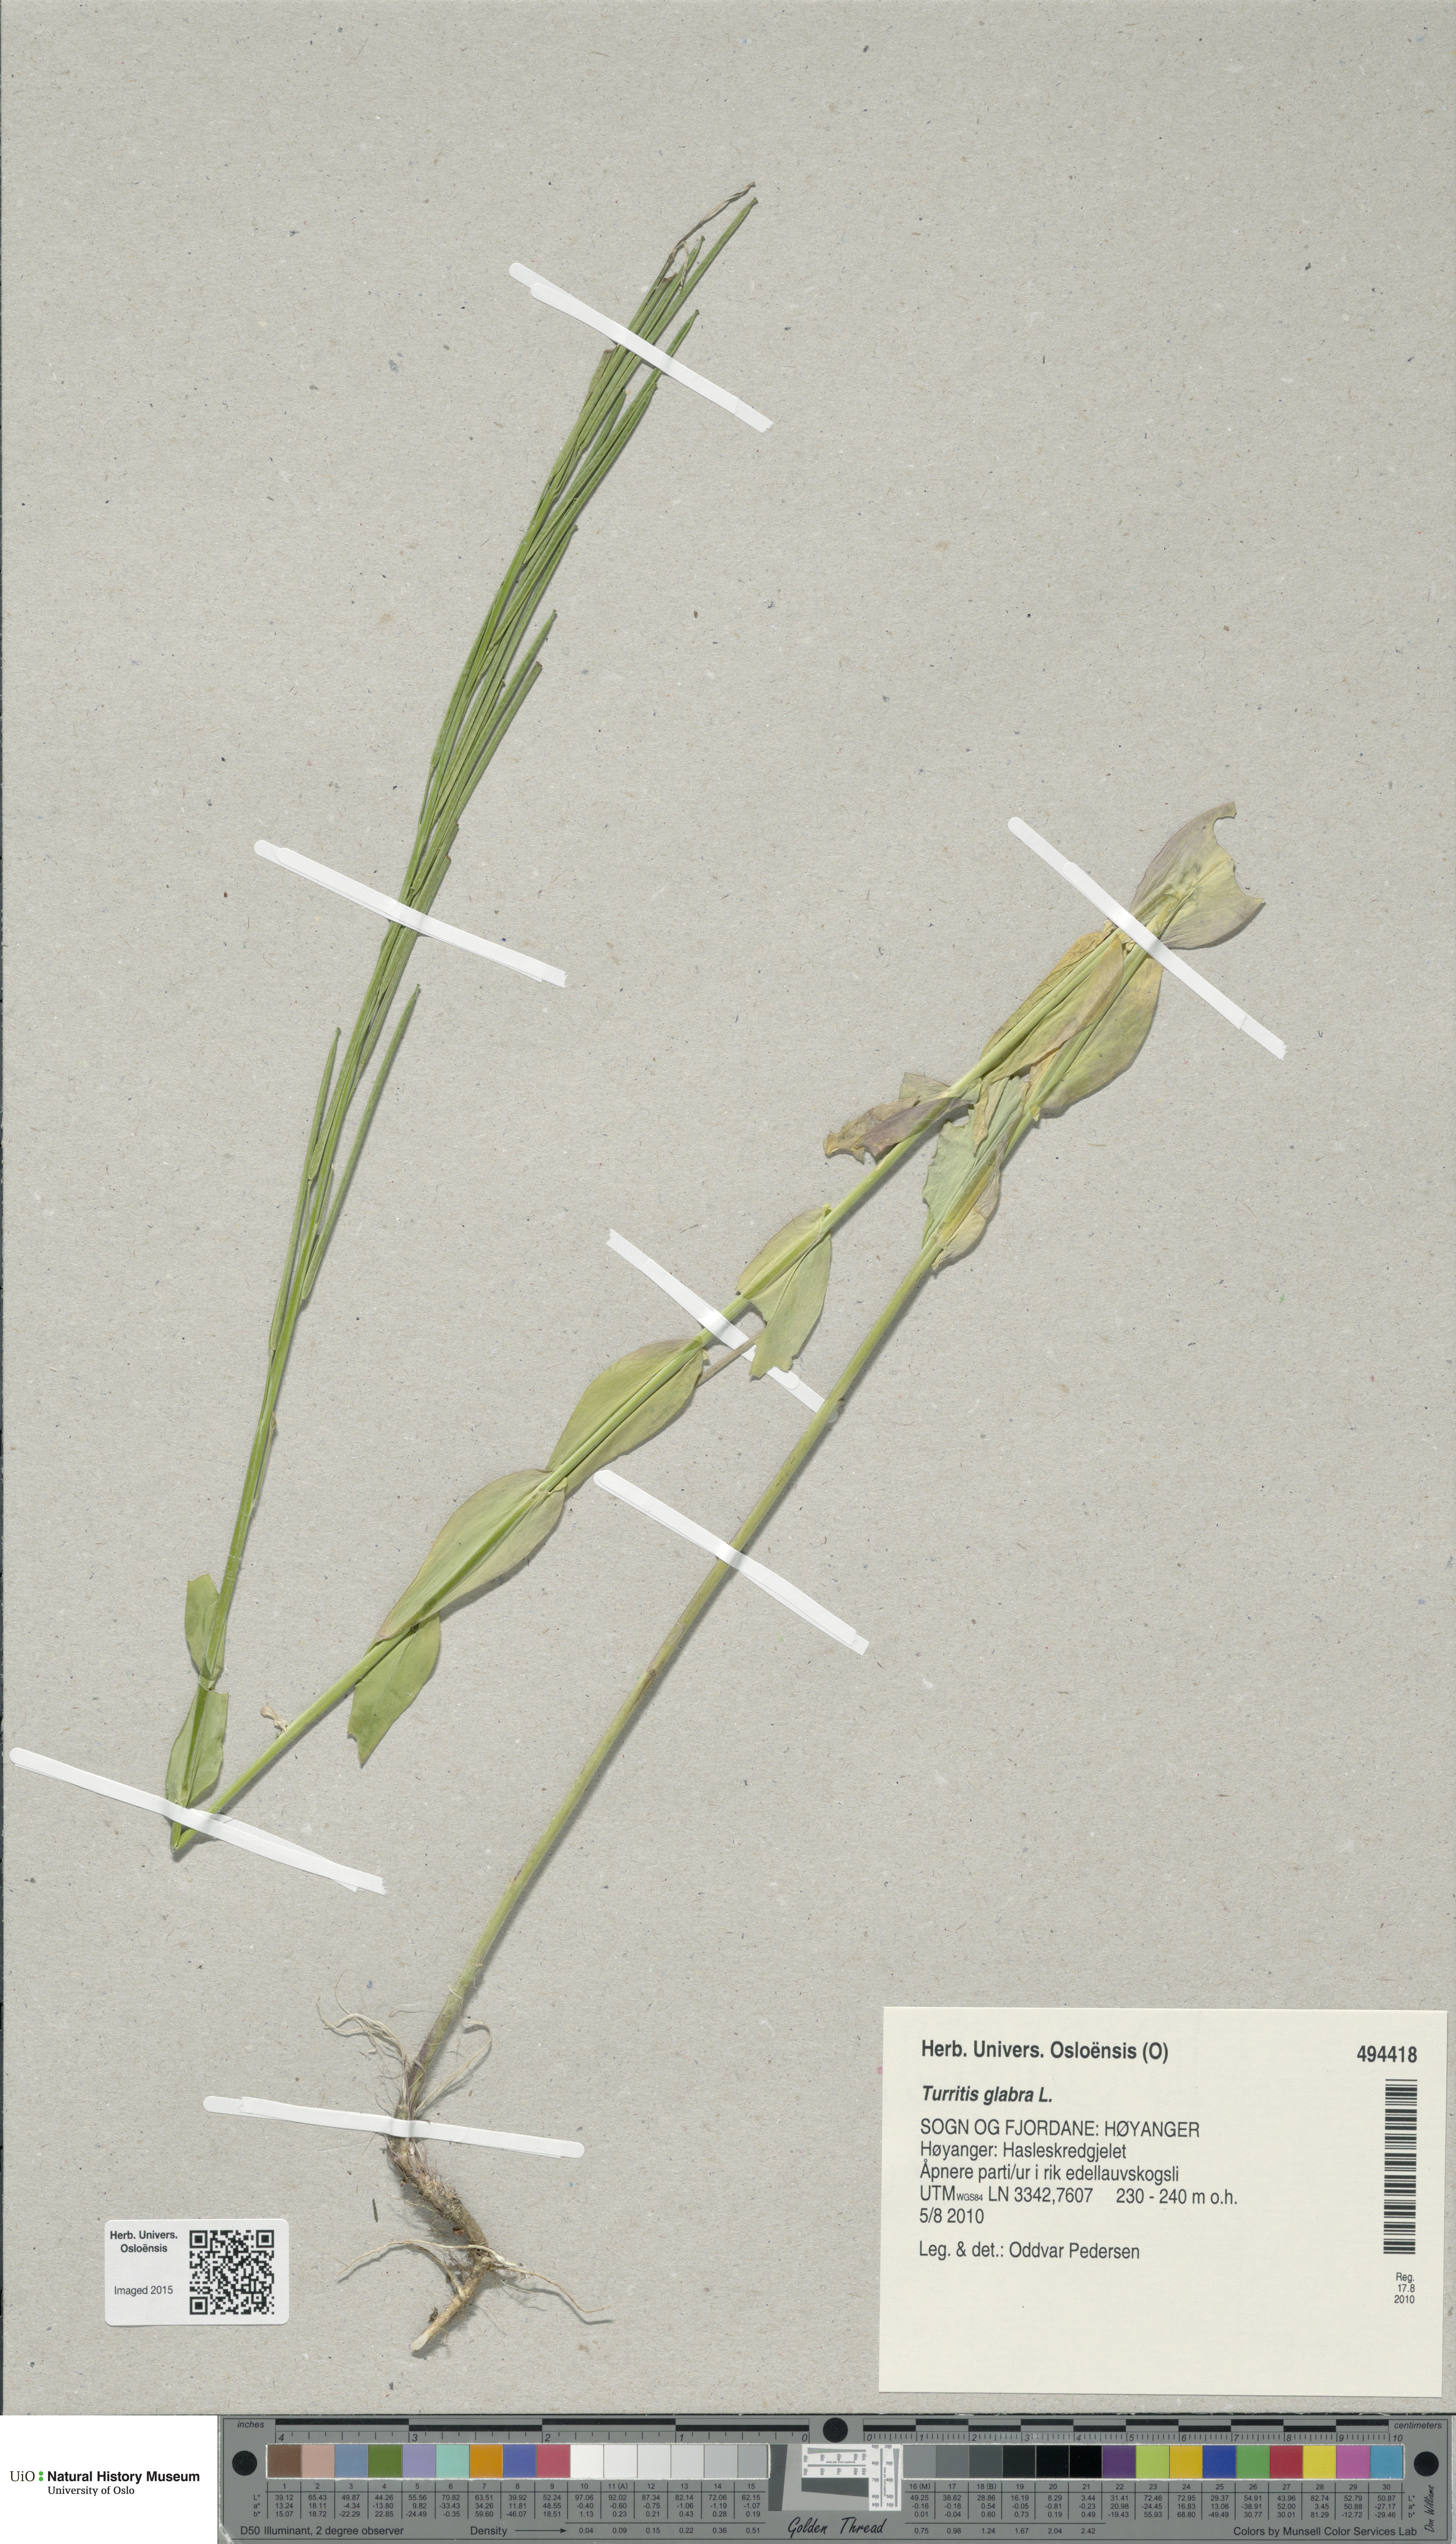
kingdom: Plantae
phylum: Tracheophyta
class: Magnoliopsida
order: Brassicales
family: Brassicaceae
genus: Turritis
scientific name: Turritis glabra
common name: Tower rockcress
